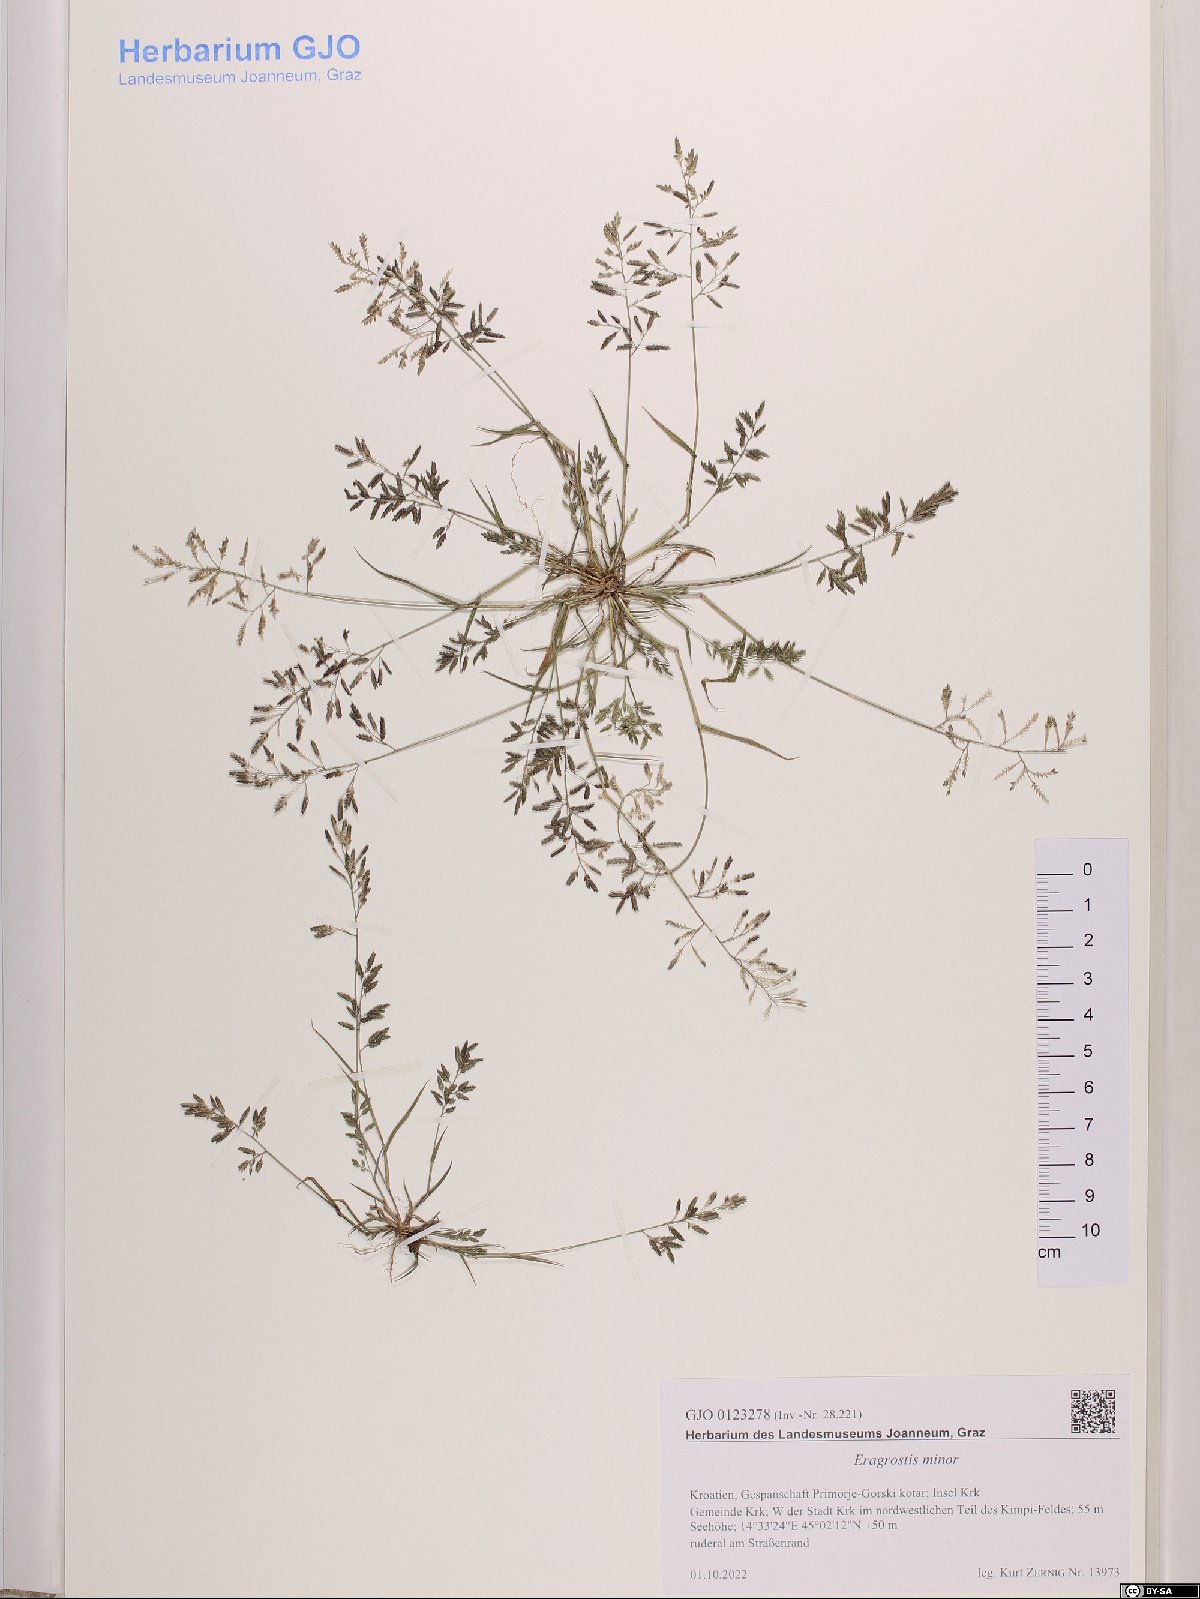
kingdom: Plantae
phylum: Tracheophyta
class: Liliopsida
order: Poales
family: Poaceae
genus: Eragrostis
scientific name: Eragrostis minor
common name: Small love-grass
